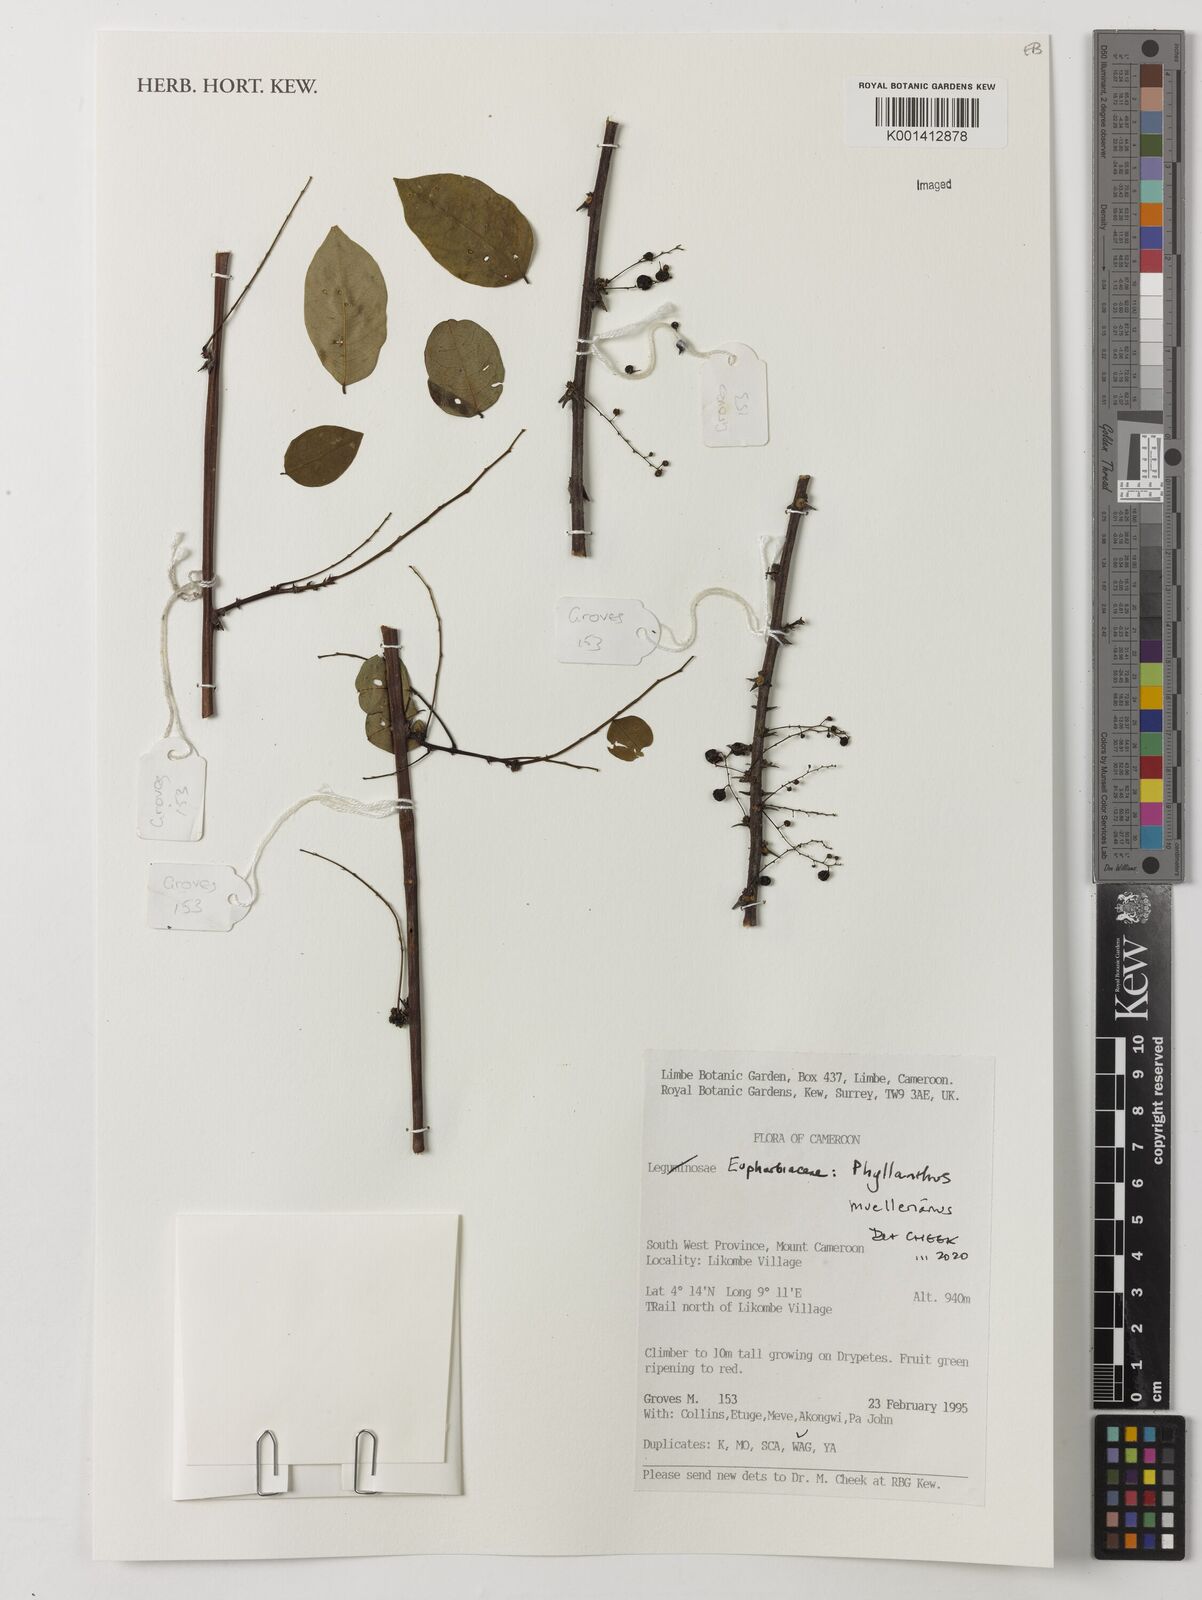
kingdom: Plantae
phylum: Tracheophyta
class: Magnoliopsida
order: Malpighiales
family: Phyllanthaceae
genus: Phyllanthus
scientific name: Phyllanthus muellerianus
